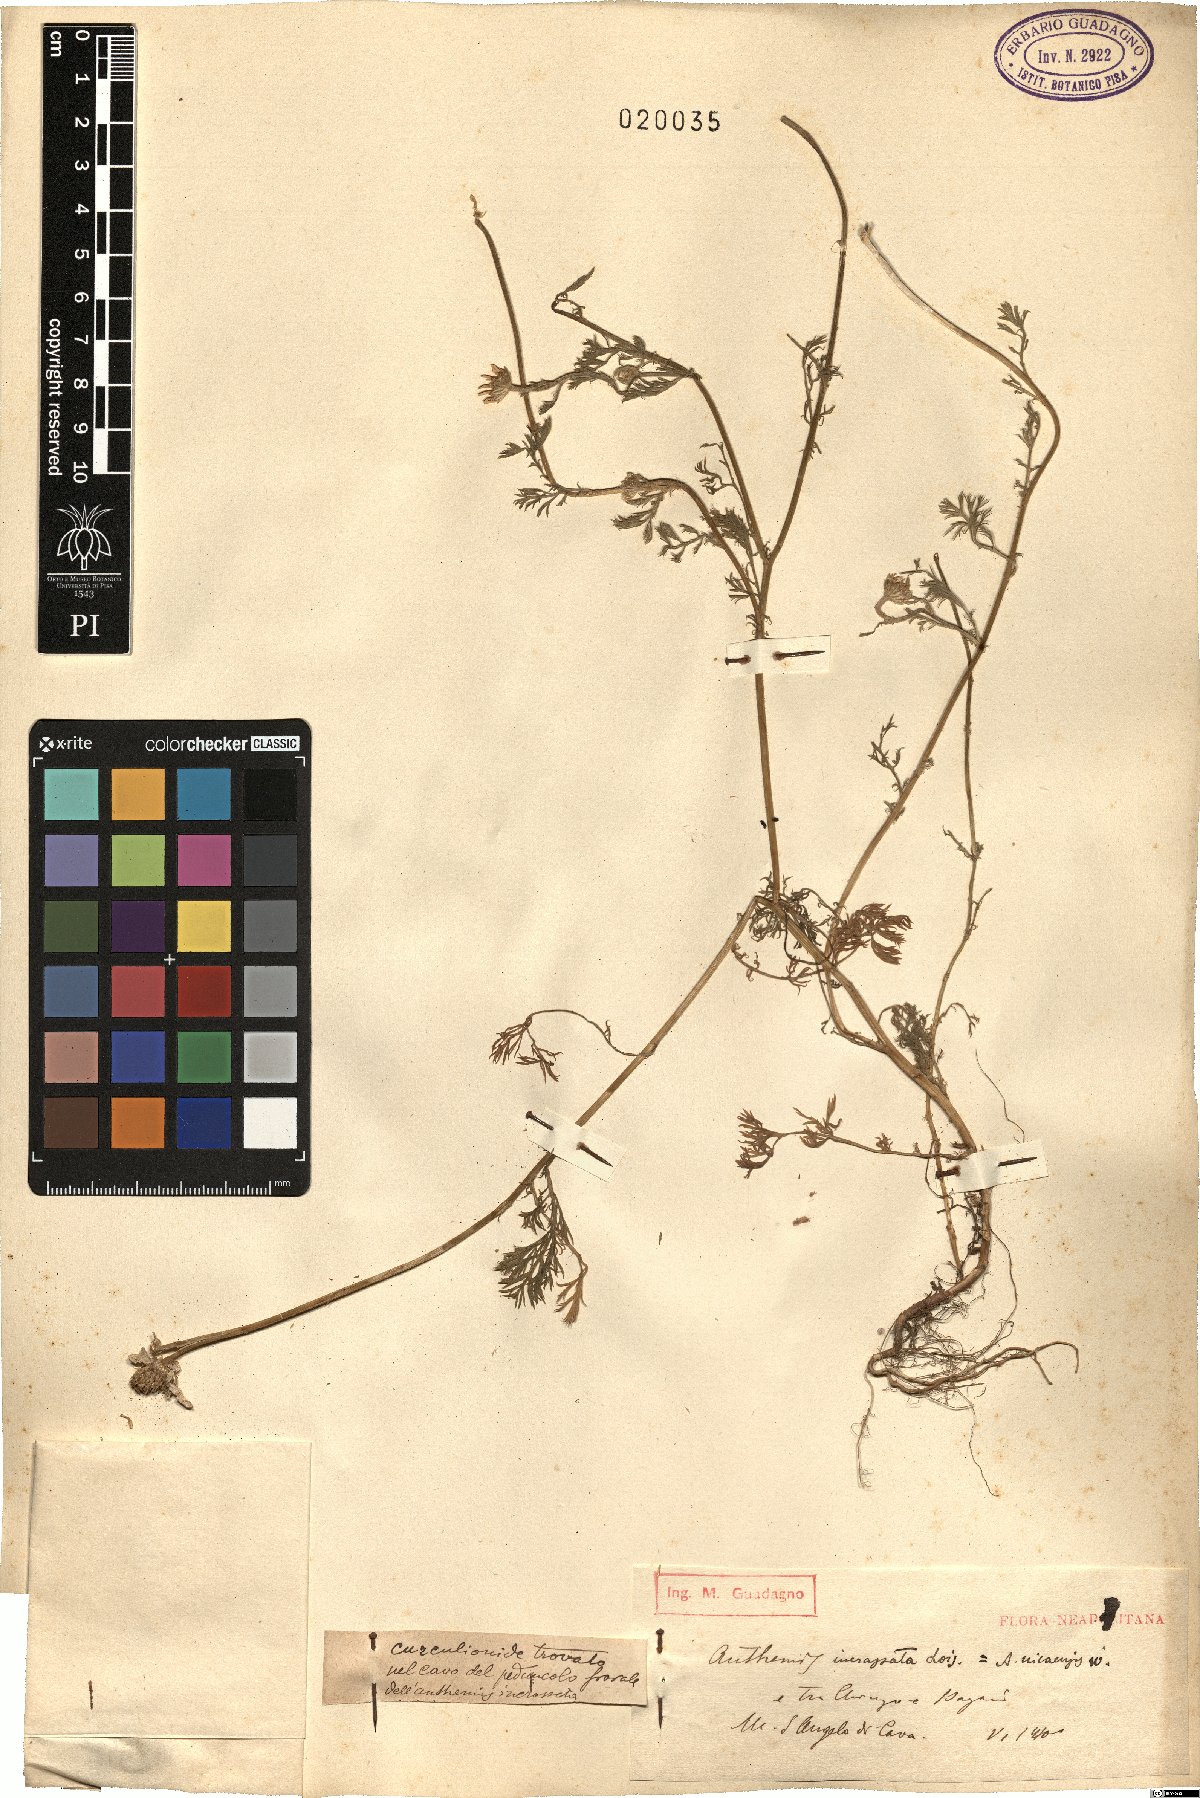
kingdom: Plantae
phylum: Tracheophyta
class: Magnoliopsida
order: Asterales
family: Asteraceae
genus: Anthemis
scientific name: Anthemis arvensis
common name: Corn chamomile
